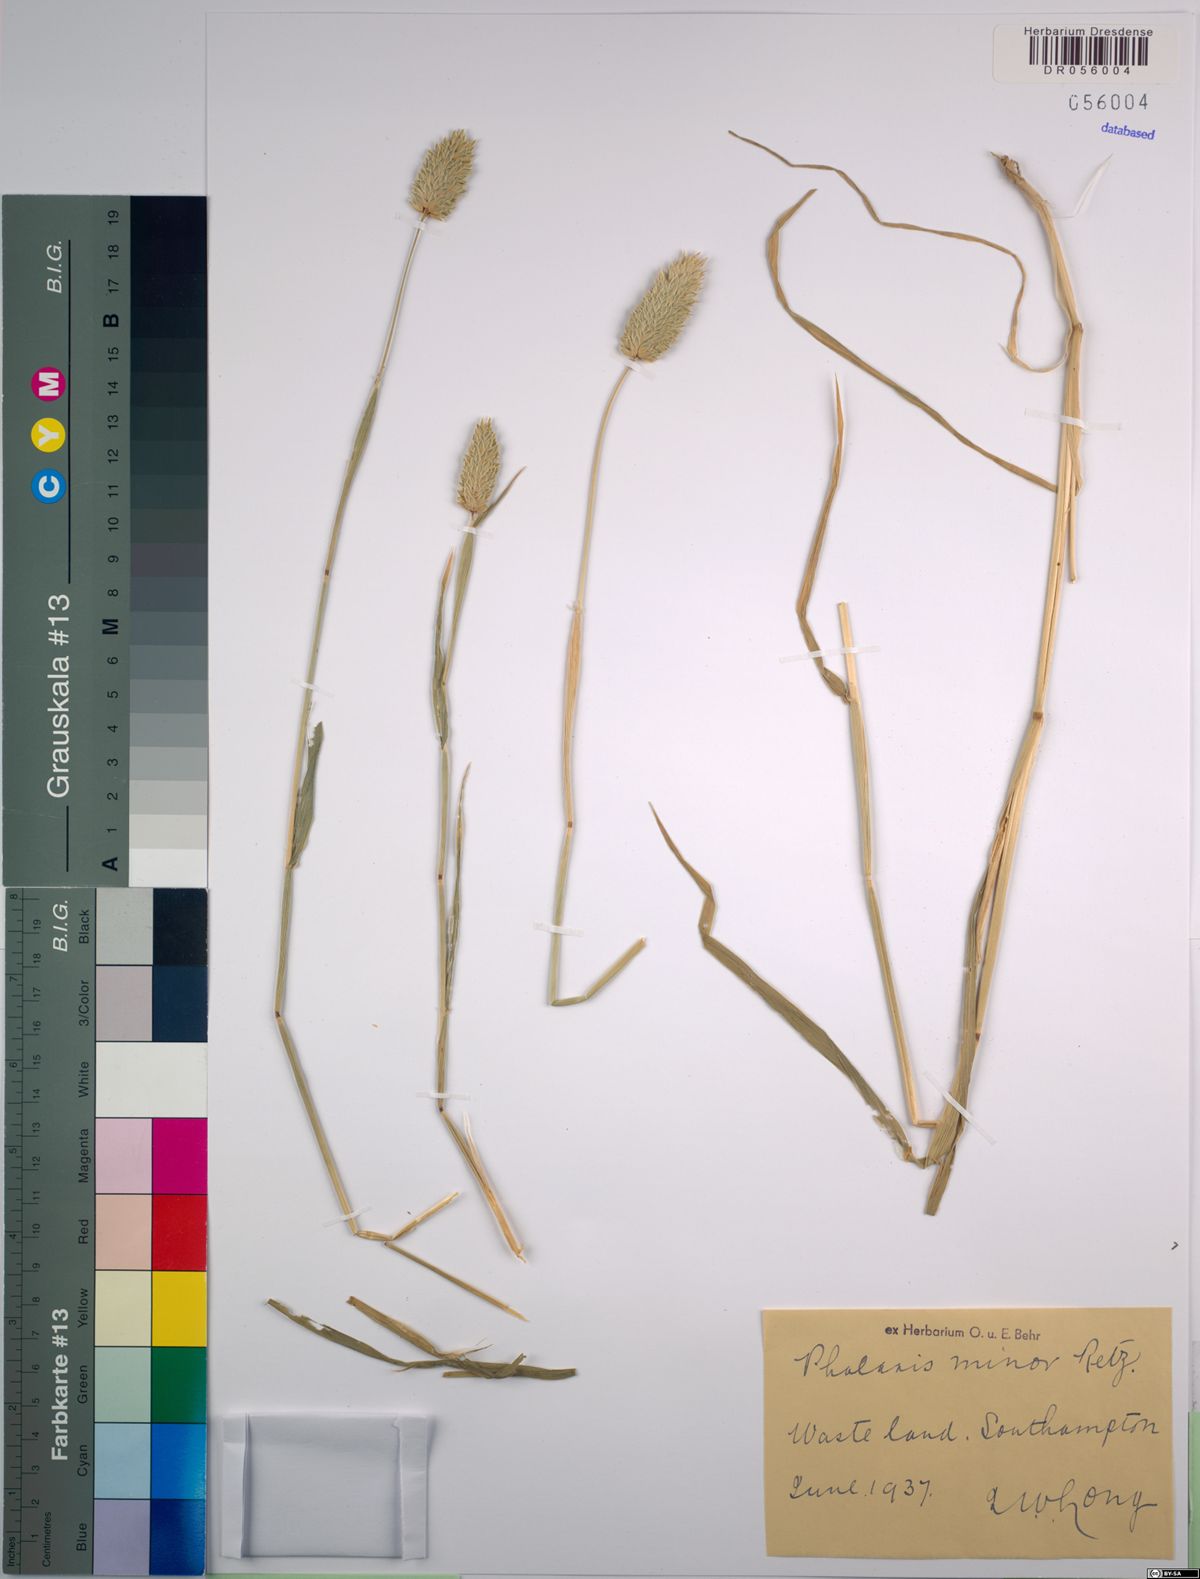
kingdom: Plantae
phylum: Tracheophyta
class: Liliopsida
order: Poales
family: Poaceae
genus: Phalaris
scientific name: Phalaris minor
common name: Littleseed canarygrass
